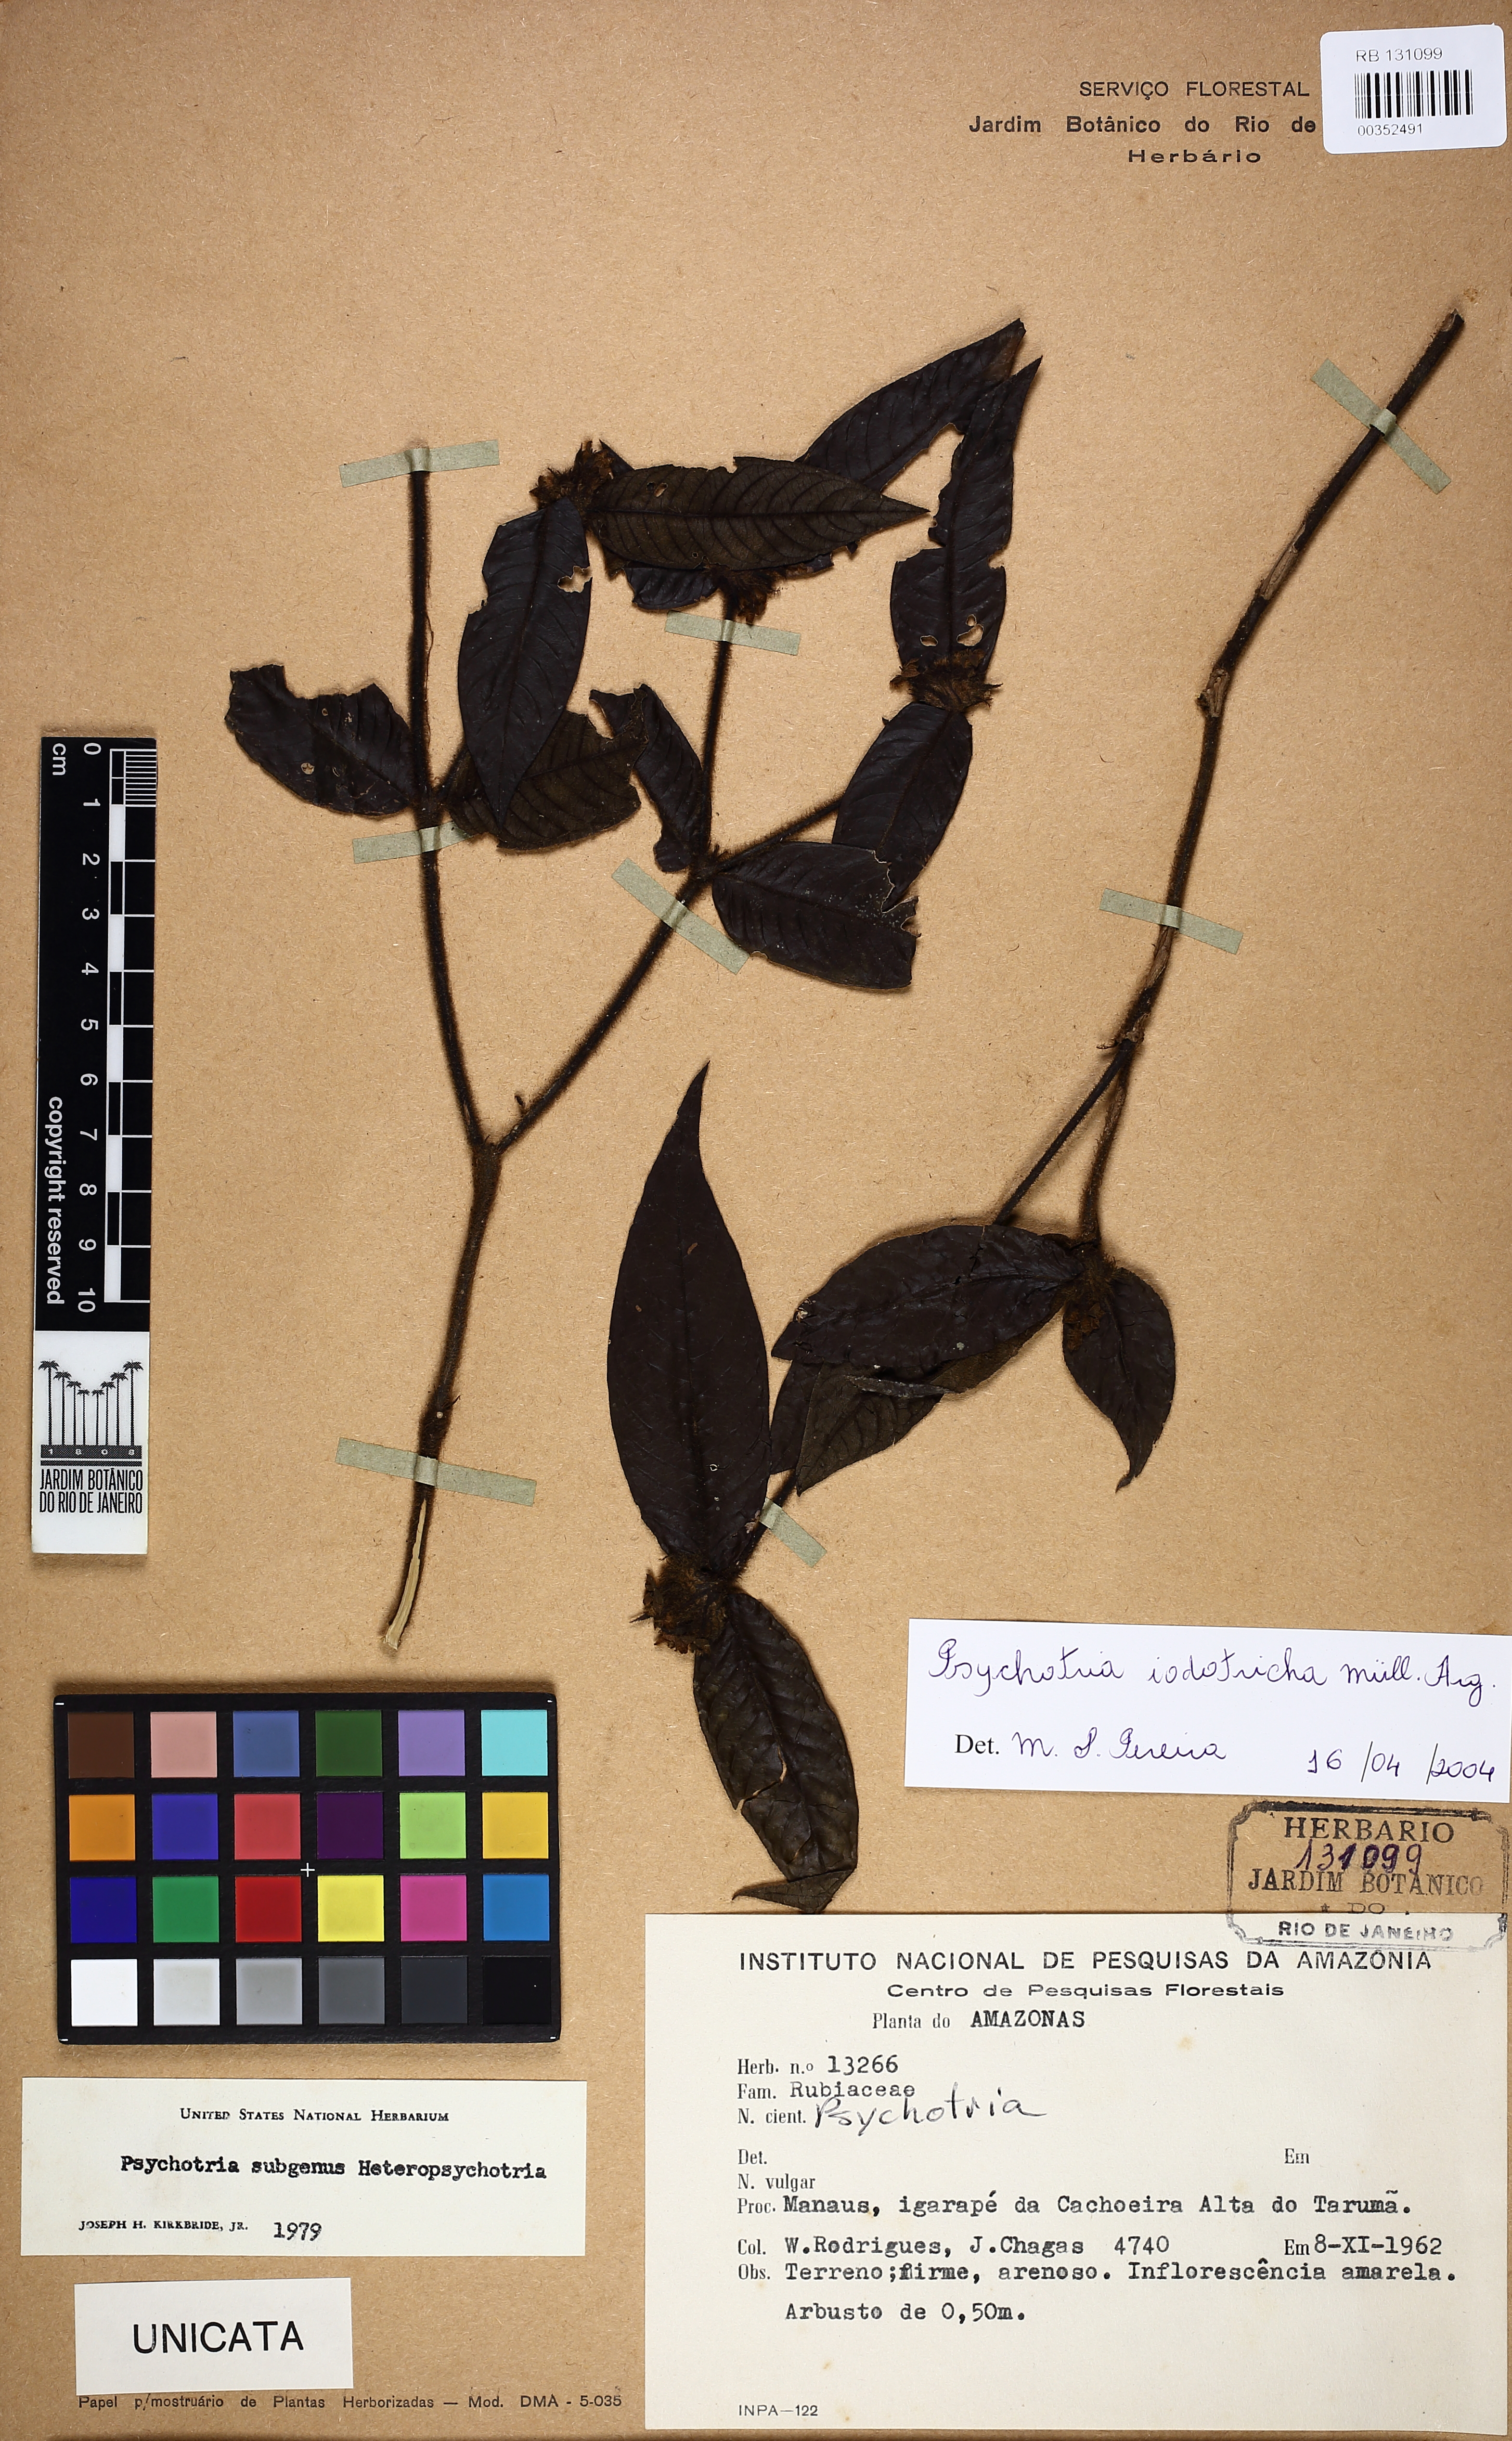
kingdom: Plantae
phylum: Tracheophyta
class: Magnoliopsida
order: Gentianales
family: Rubiaceae
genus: Palicourea
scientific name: Palicourea iodotricha
